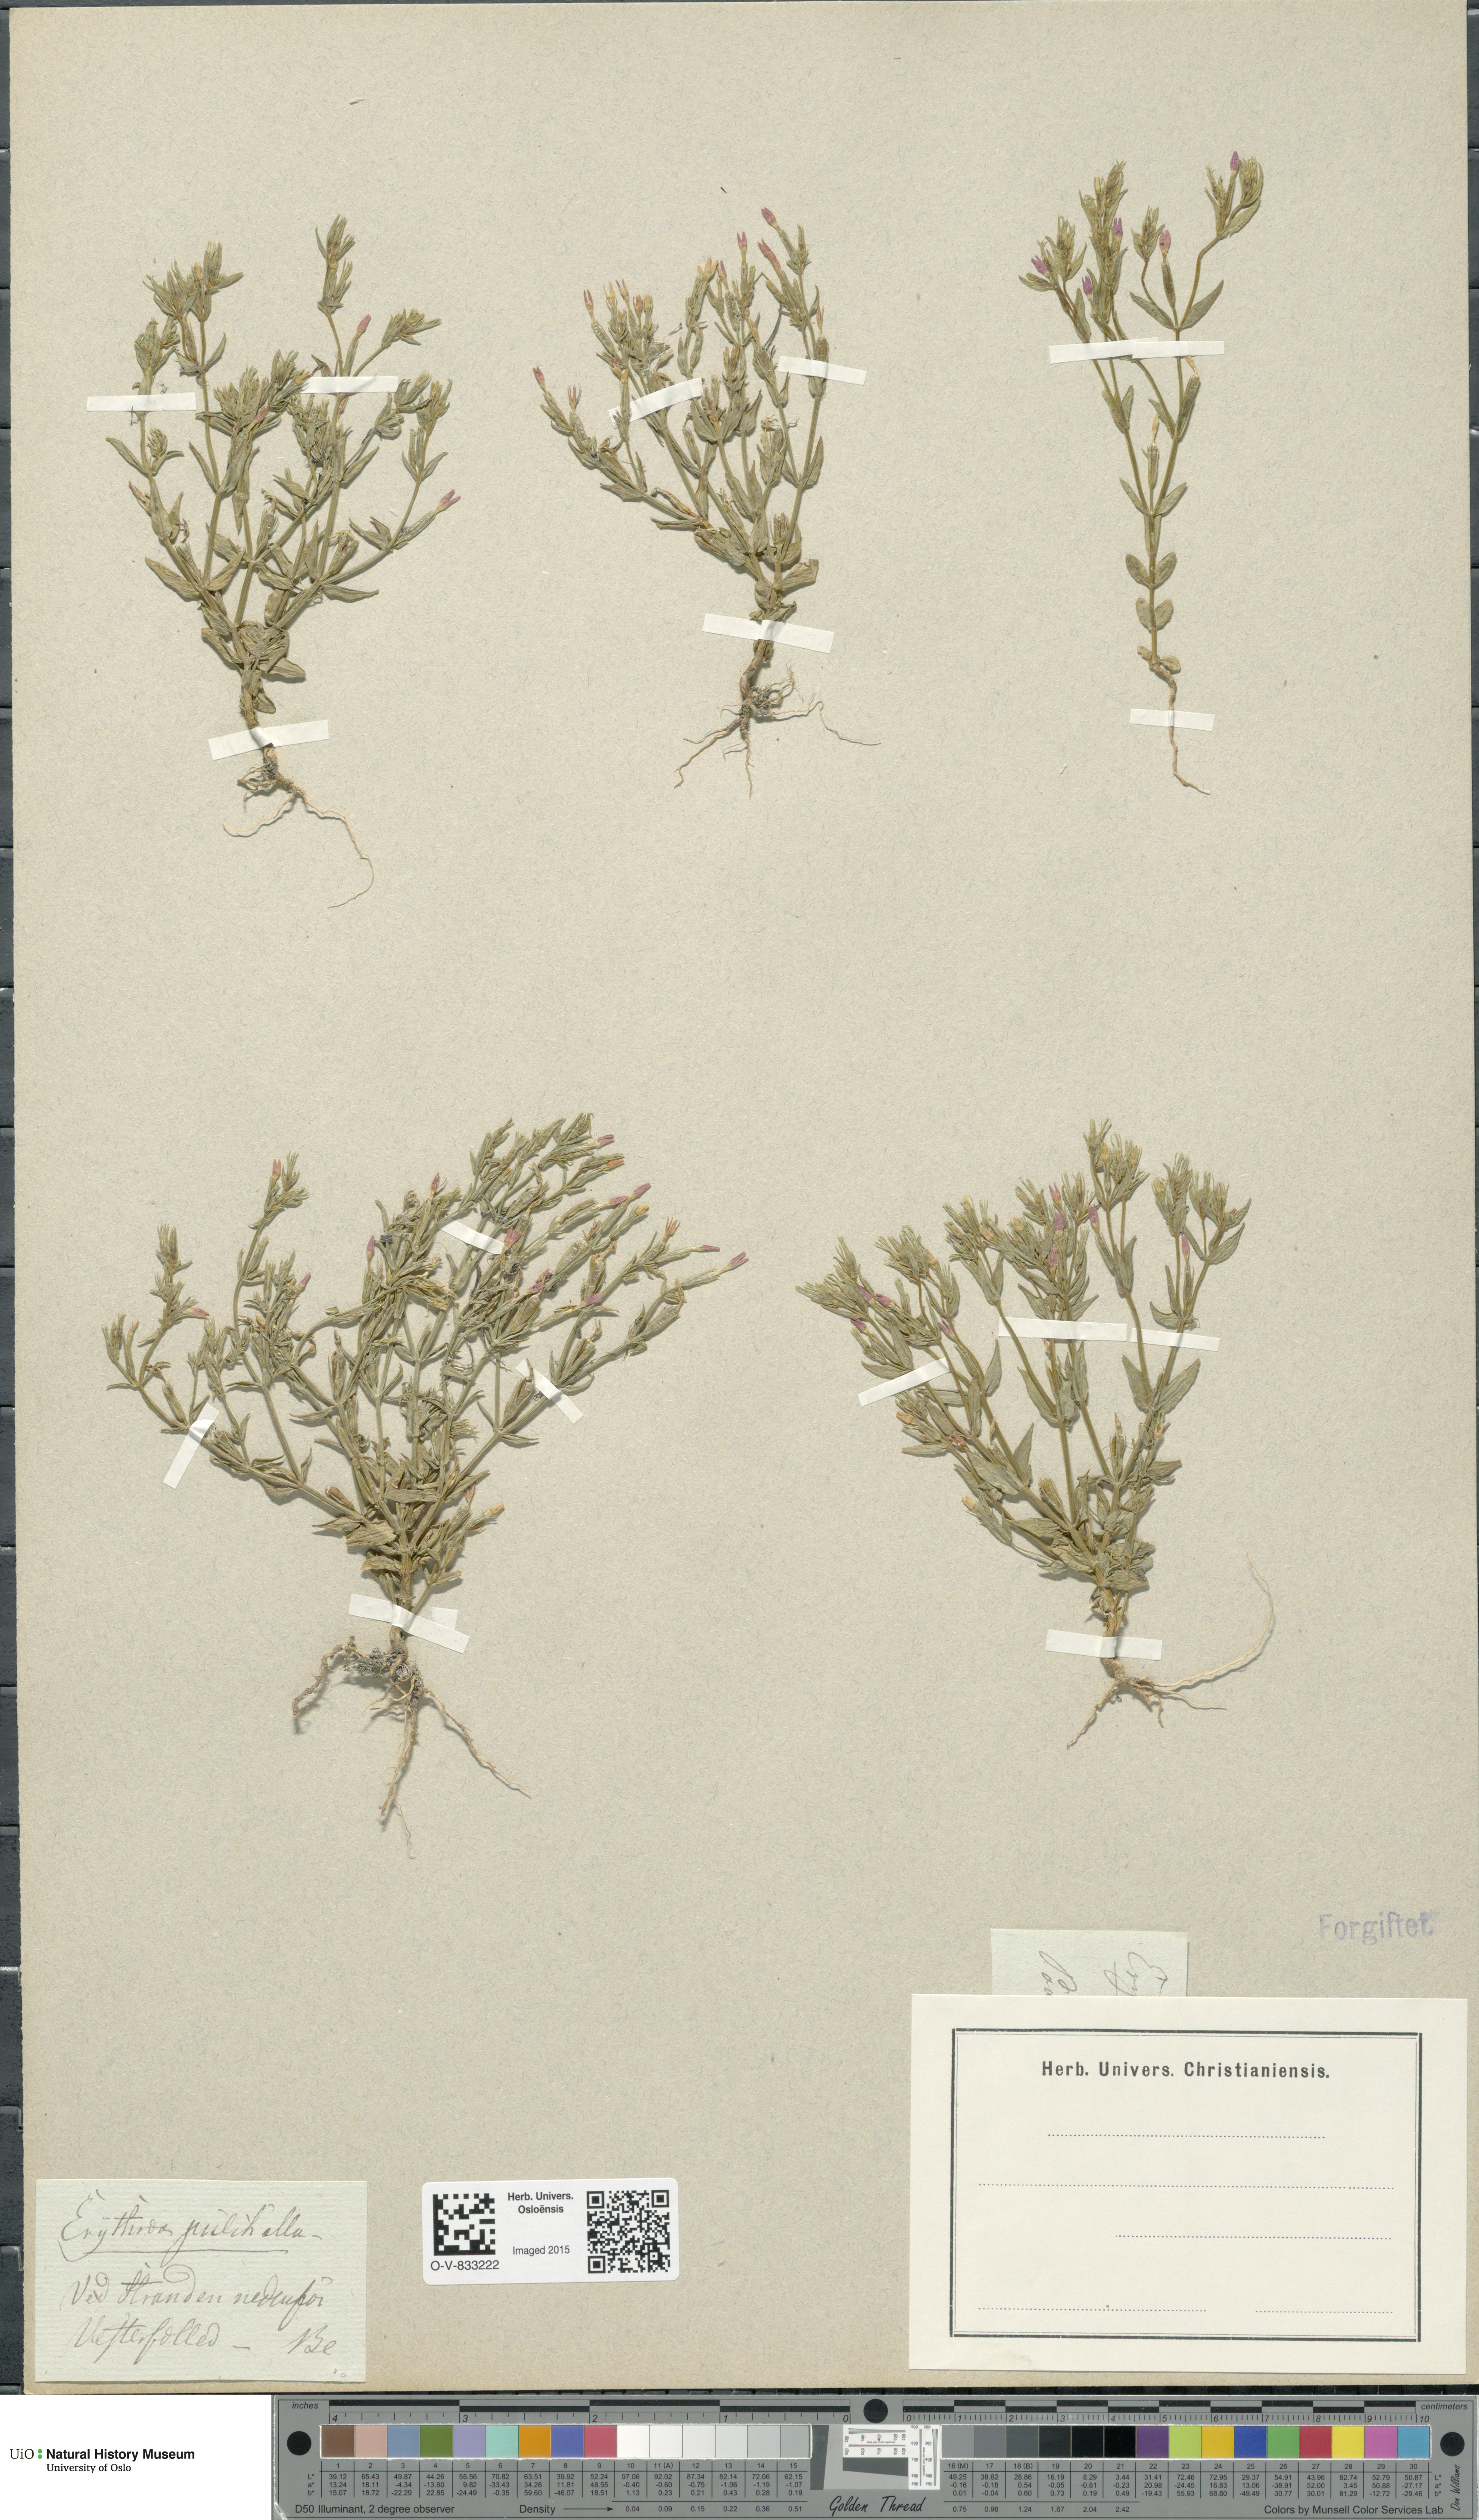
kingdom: Plantae
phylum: Tracheophyta
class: Magnoliopsida
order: Gentianales
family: Gentianaceae
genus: Centaurium
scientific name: Centaurium pulchellum
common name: Lesser centaury
